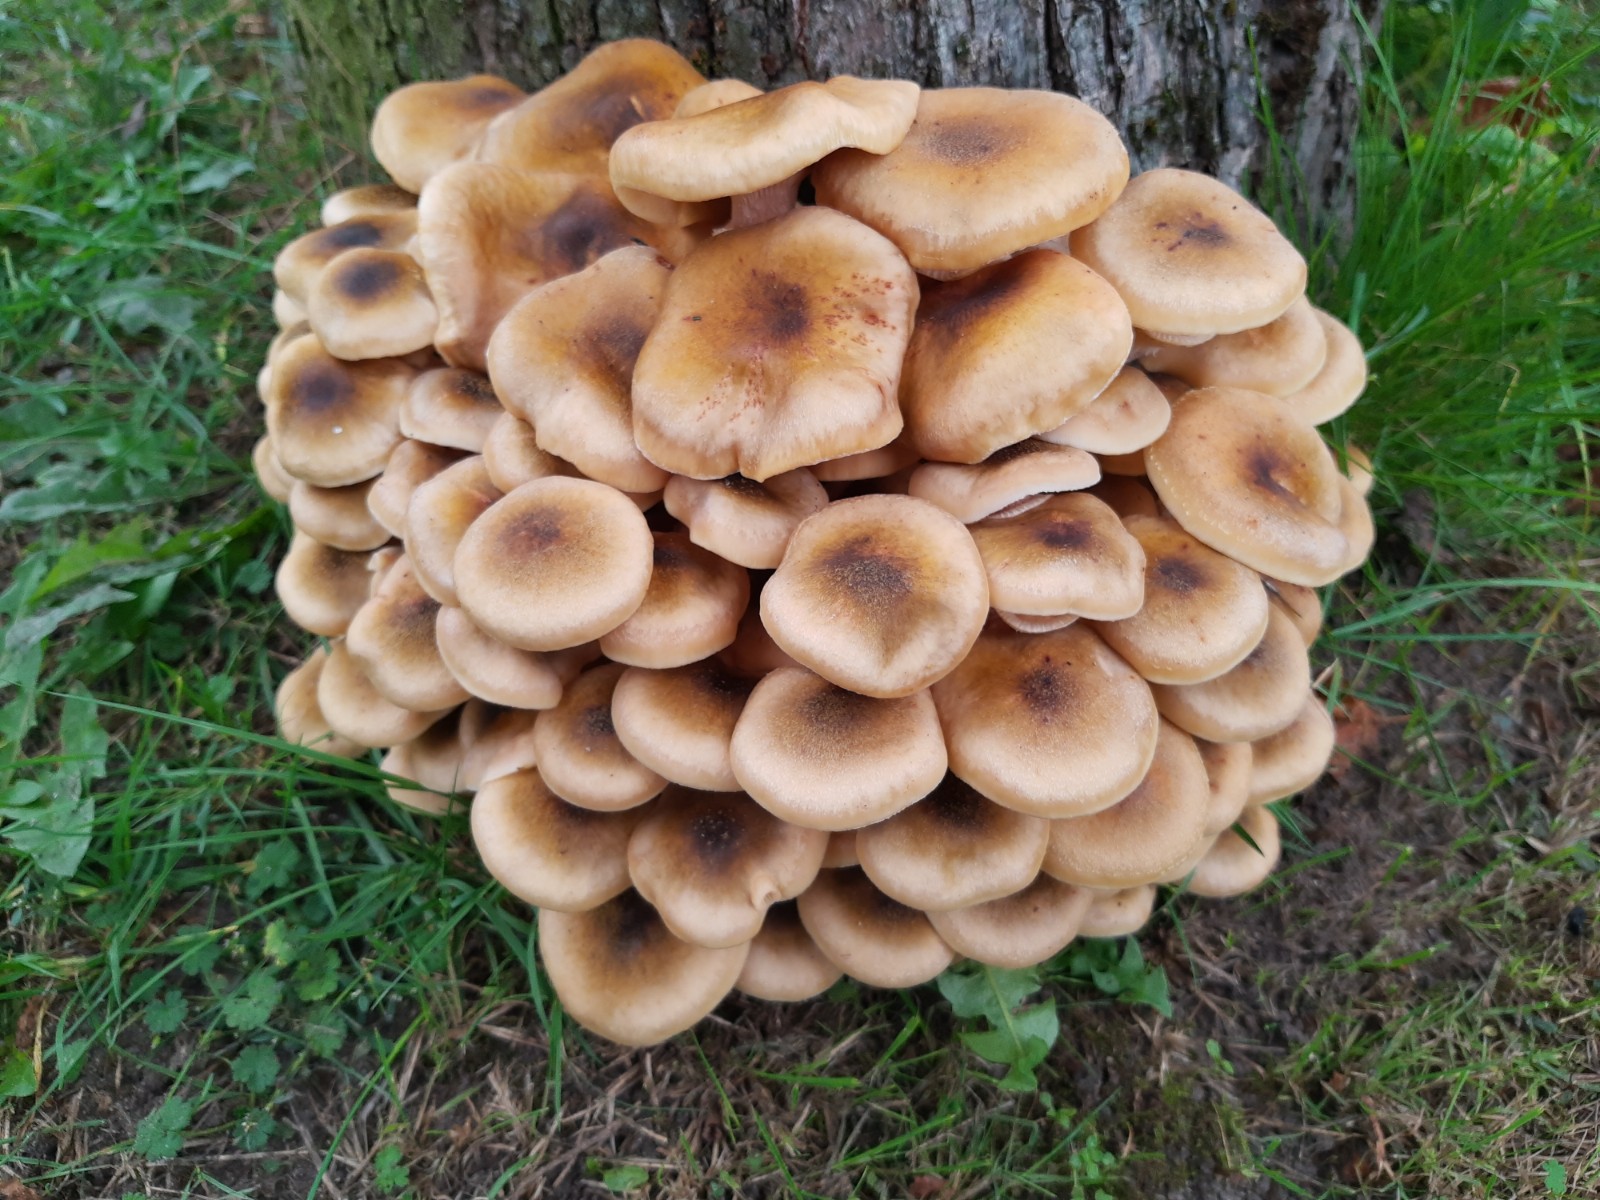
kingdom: Fungi
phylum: Basidiomycota
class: Agaricomycetes
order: Agaricales
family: Physalacriaceae
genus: Armillaria
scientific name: Armillaria mellea
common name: ægte honningsvamp
